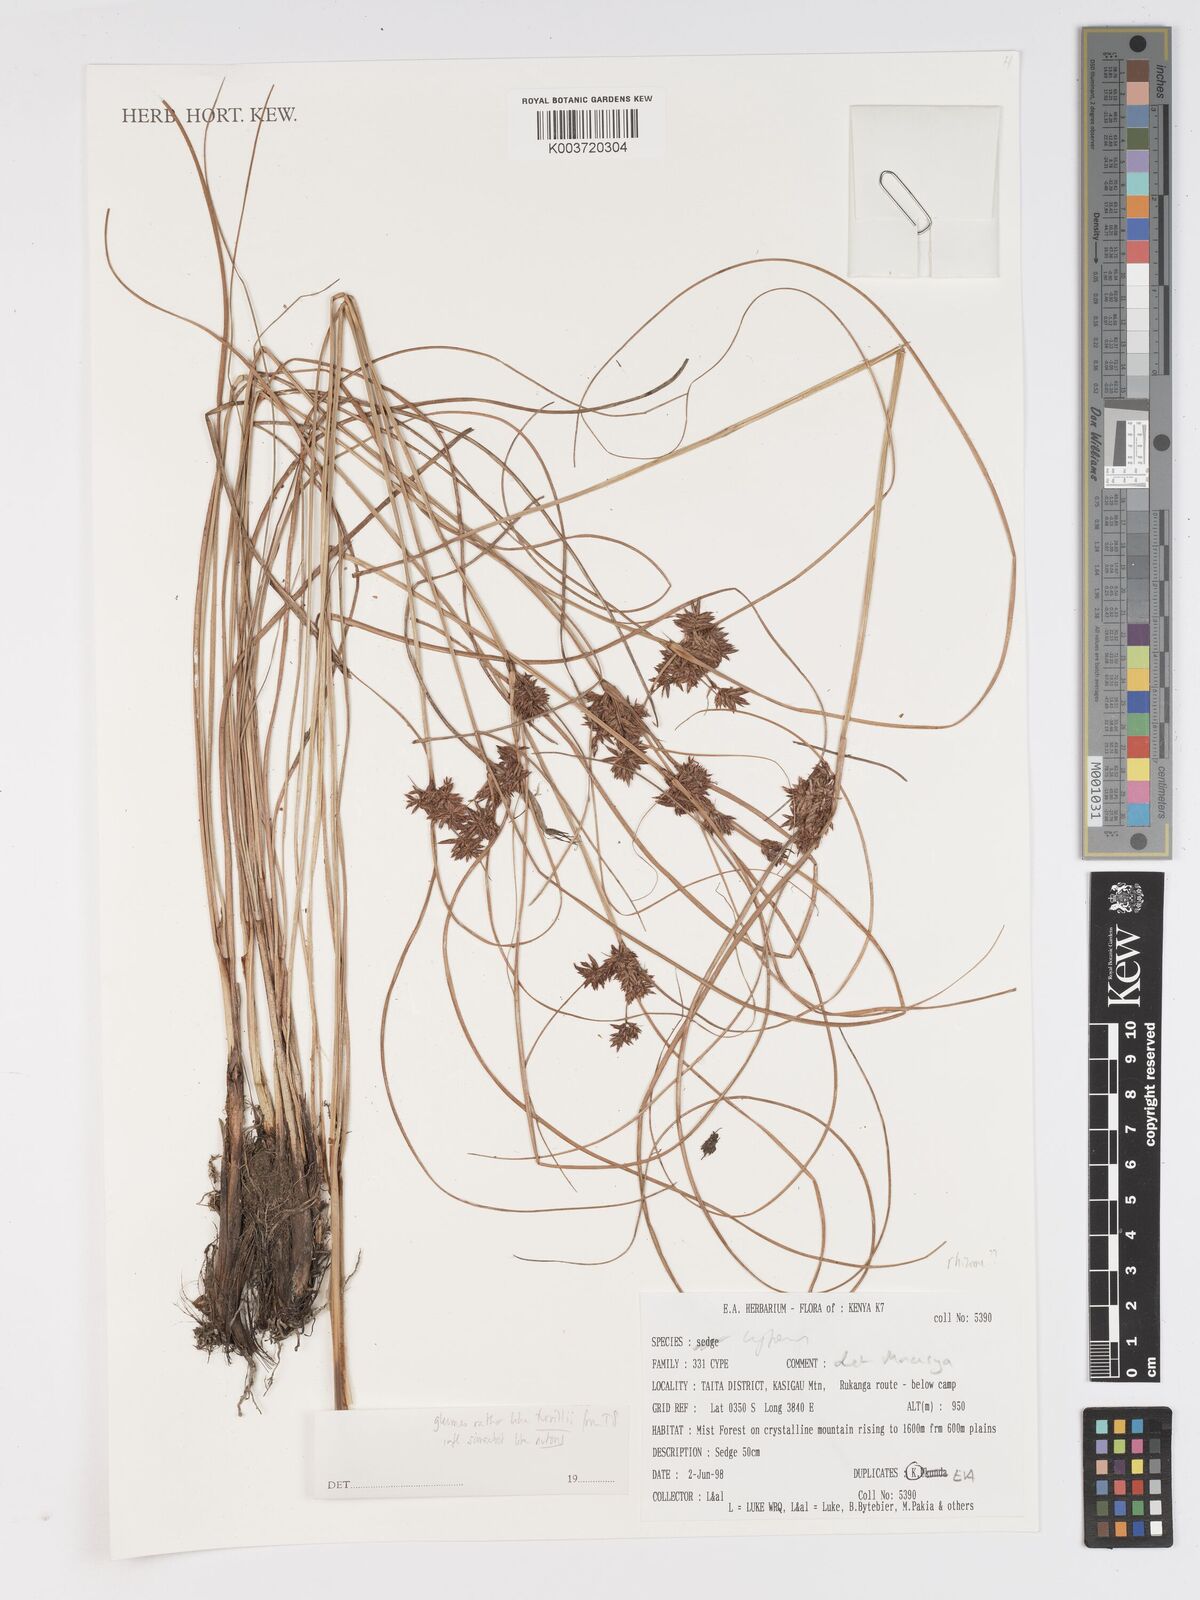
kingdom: Plantae
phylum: Tracheophyta
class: Liliopsida
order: Poales
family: Cyperaceae
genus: Cyperus
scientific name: Cyperus
